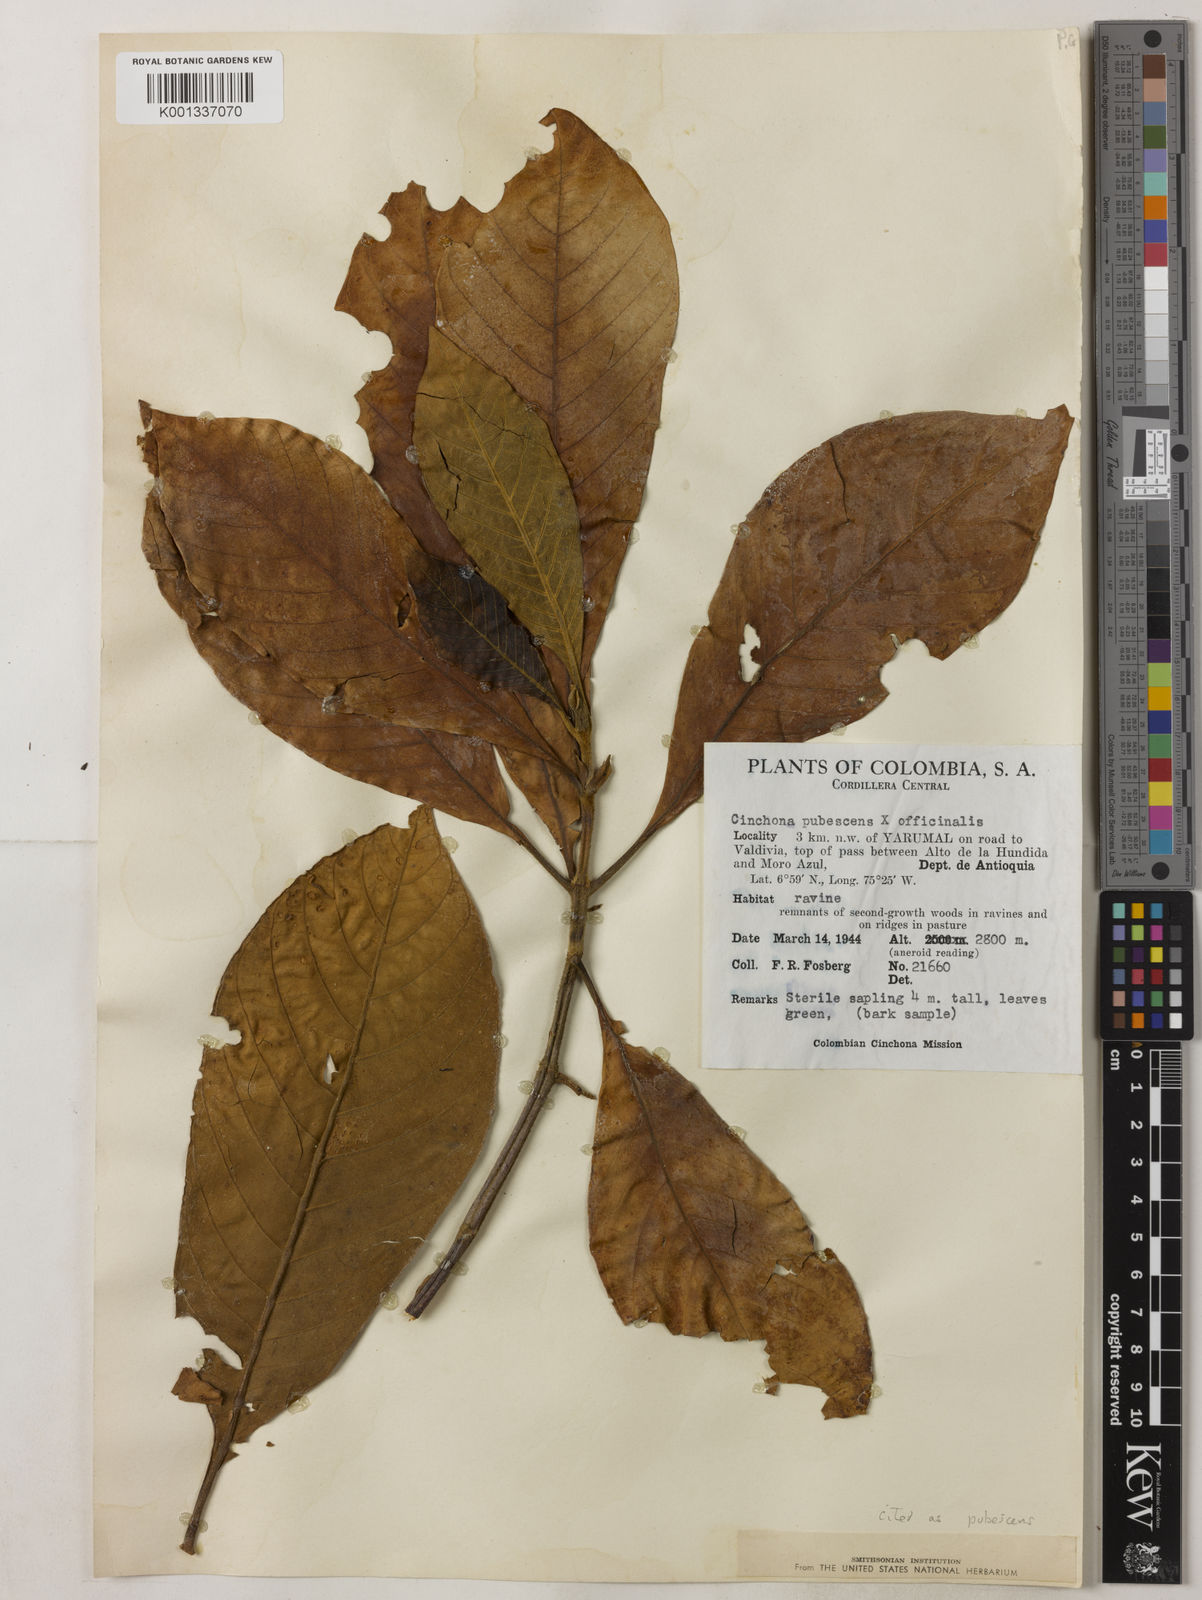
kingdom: Plantae
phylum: Tracheophyta
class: Magnoliopsida
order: Gentianales
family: Rubiaceae
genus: Cinchona
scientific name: Cinchona pubescens
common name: Quinine
